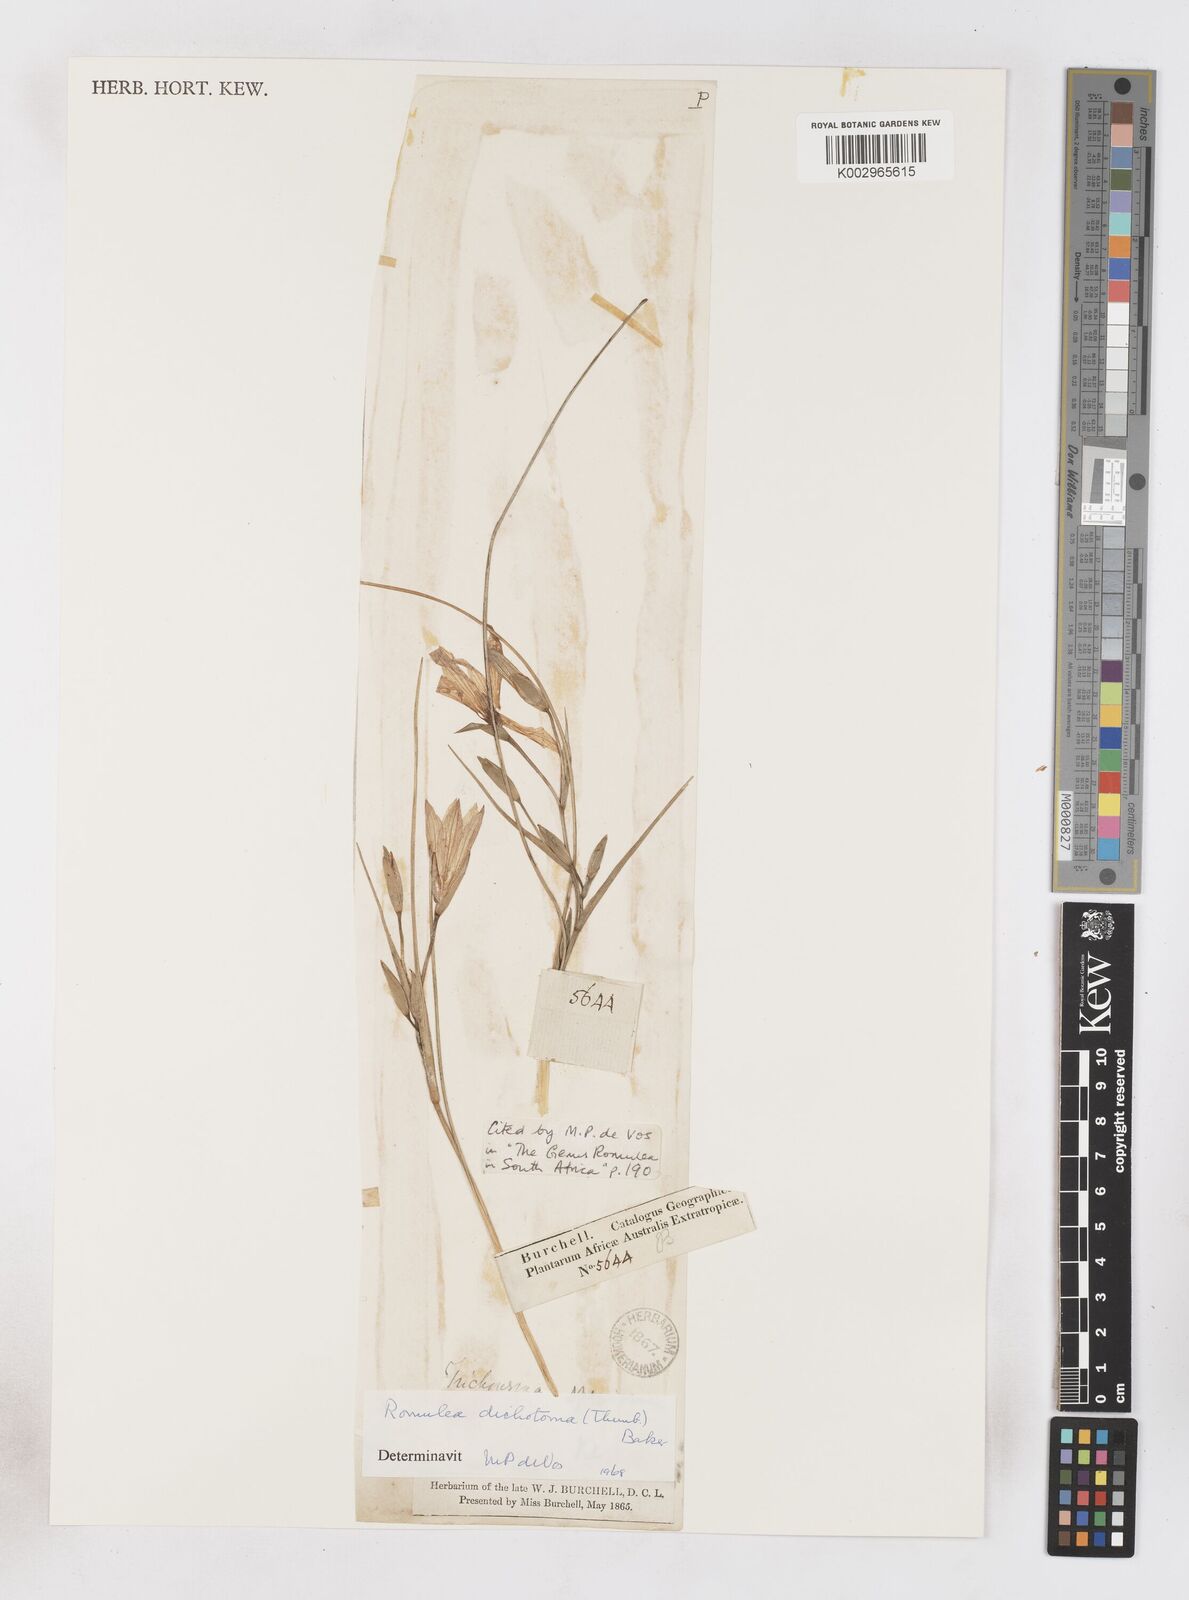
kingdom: Plantae
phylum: Tracheophyta
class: Liliopsida
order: Asparagales
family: Iridaceae
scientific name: Iridaceae
